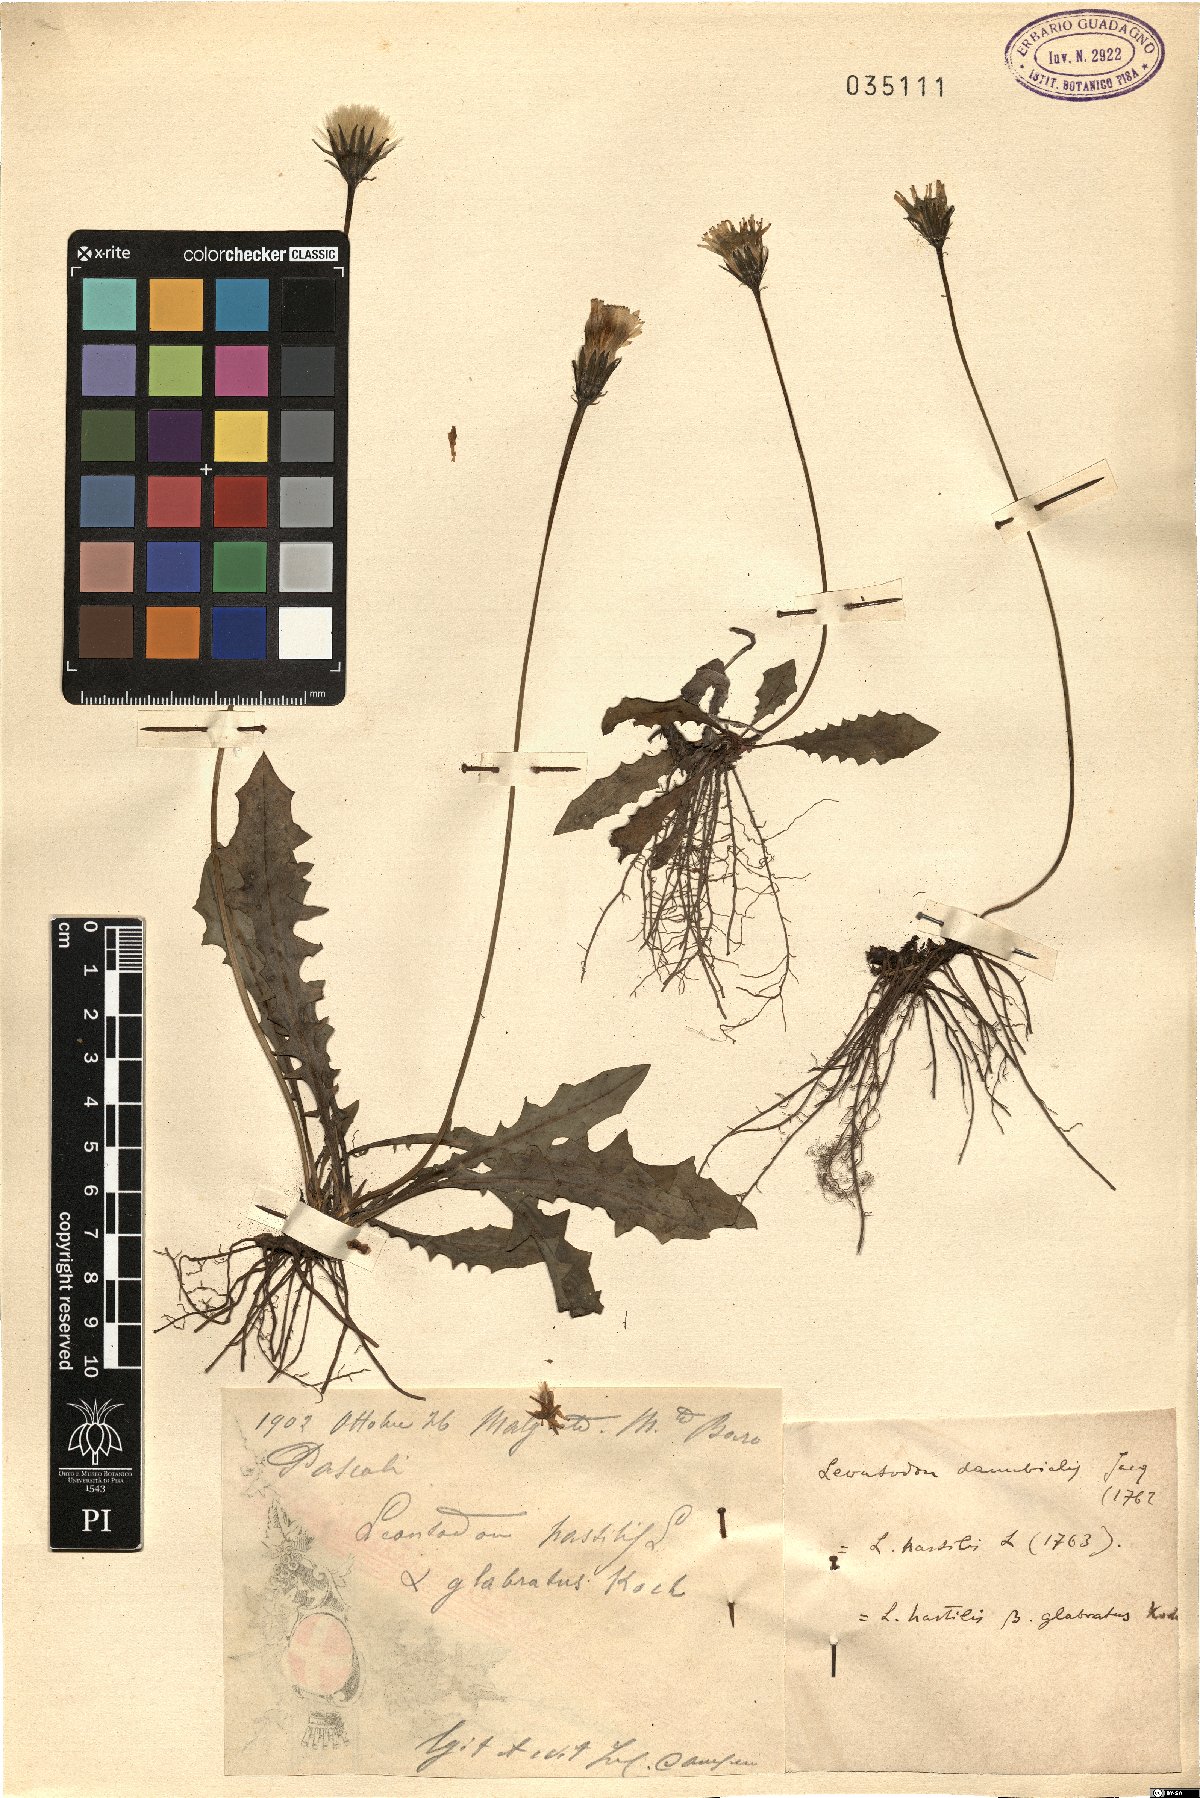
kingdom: Plantae
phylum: Tracheophyta
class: Magnoliopsida
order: Asterales
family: Asteraceae
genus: Leontodon
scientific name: Leontodon hispidus
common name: Rough hawkbit
